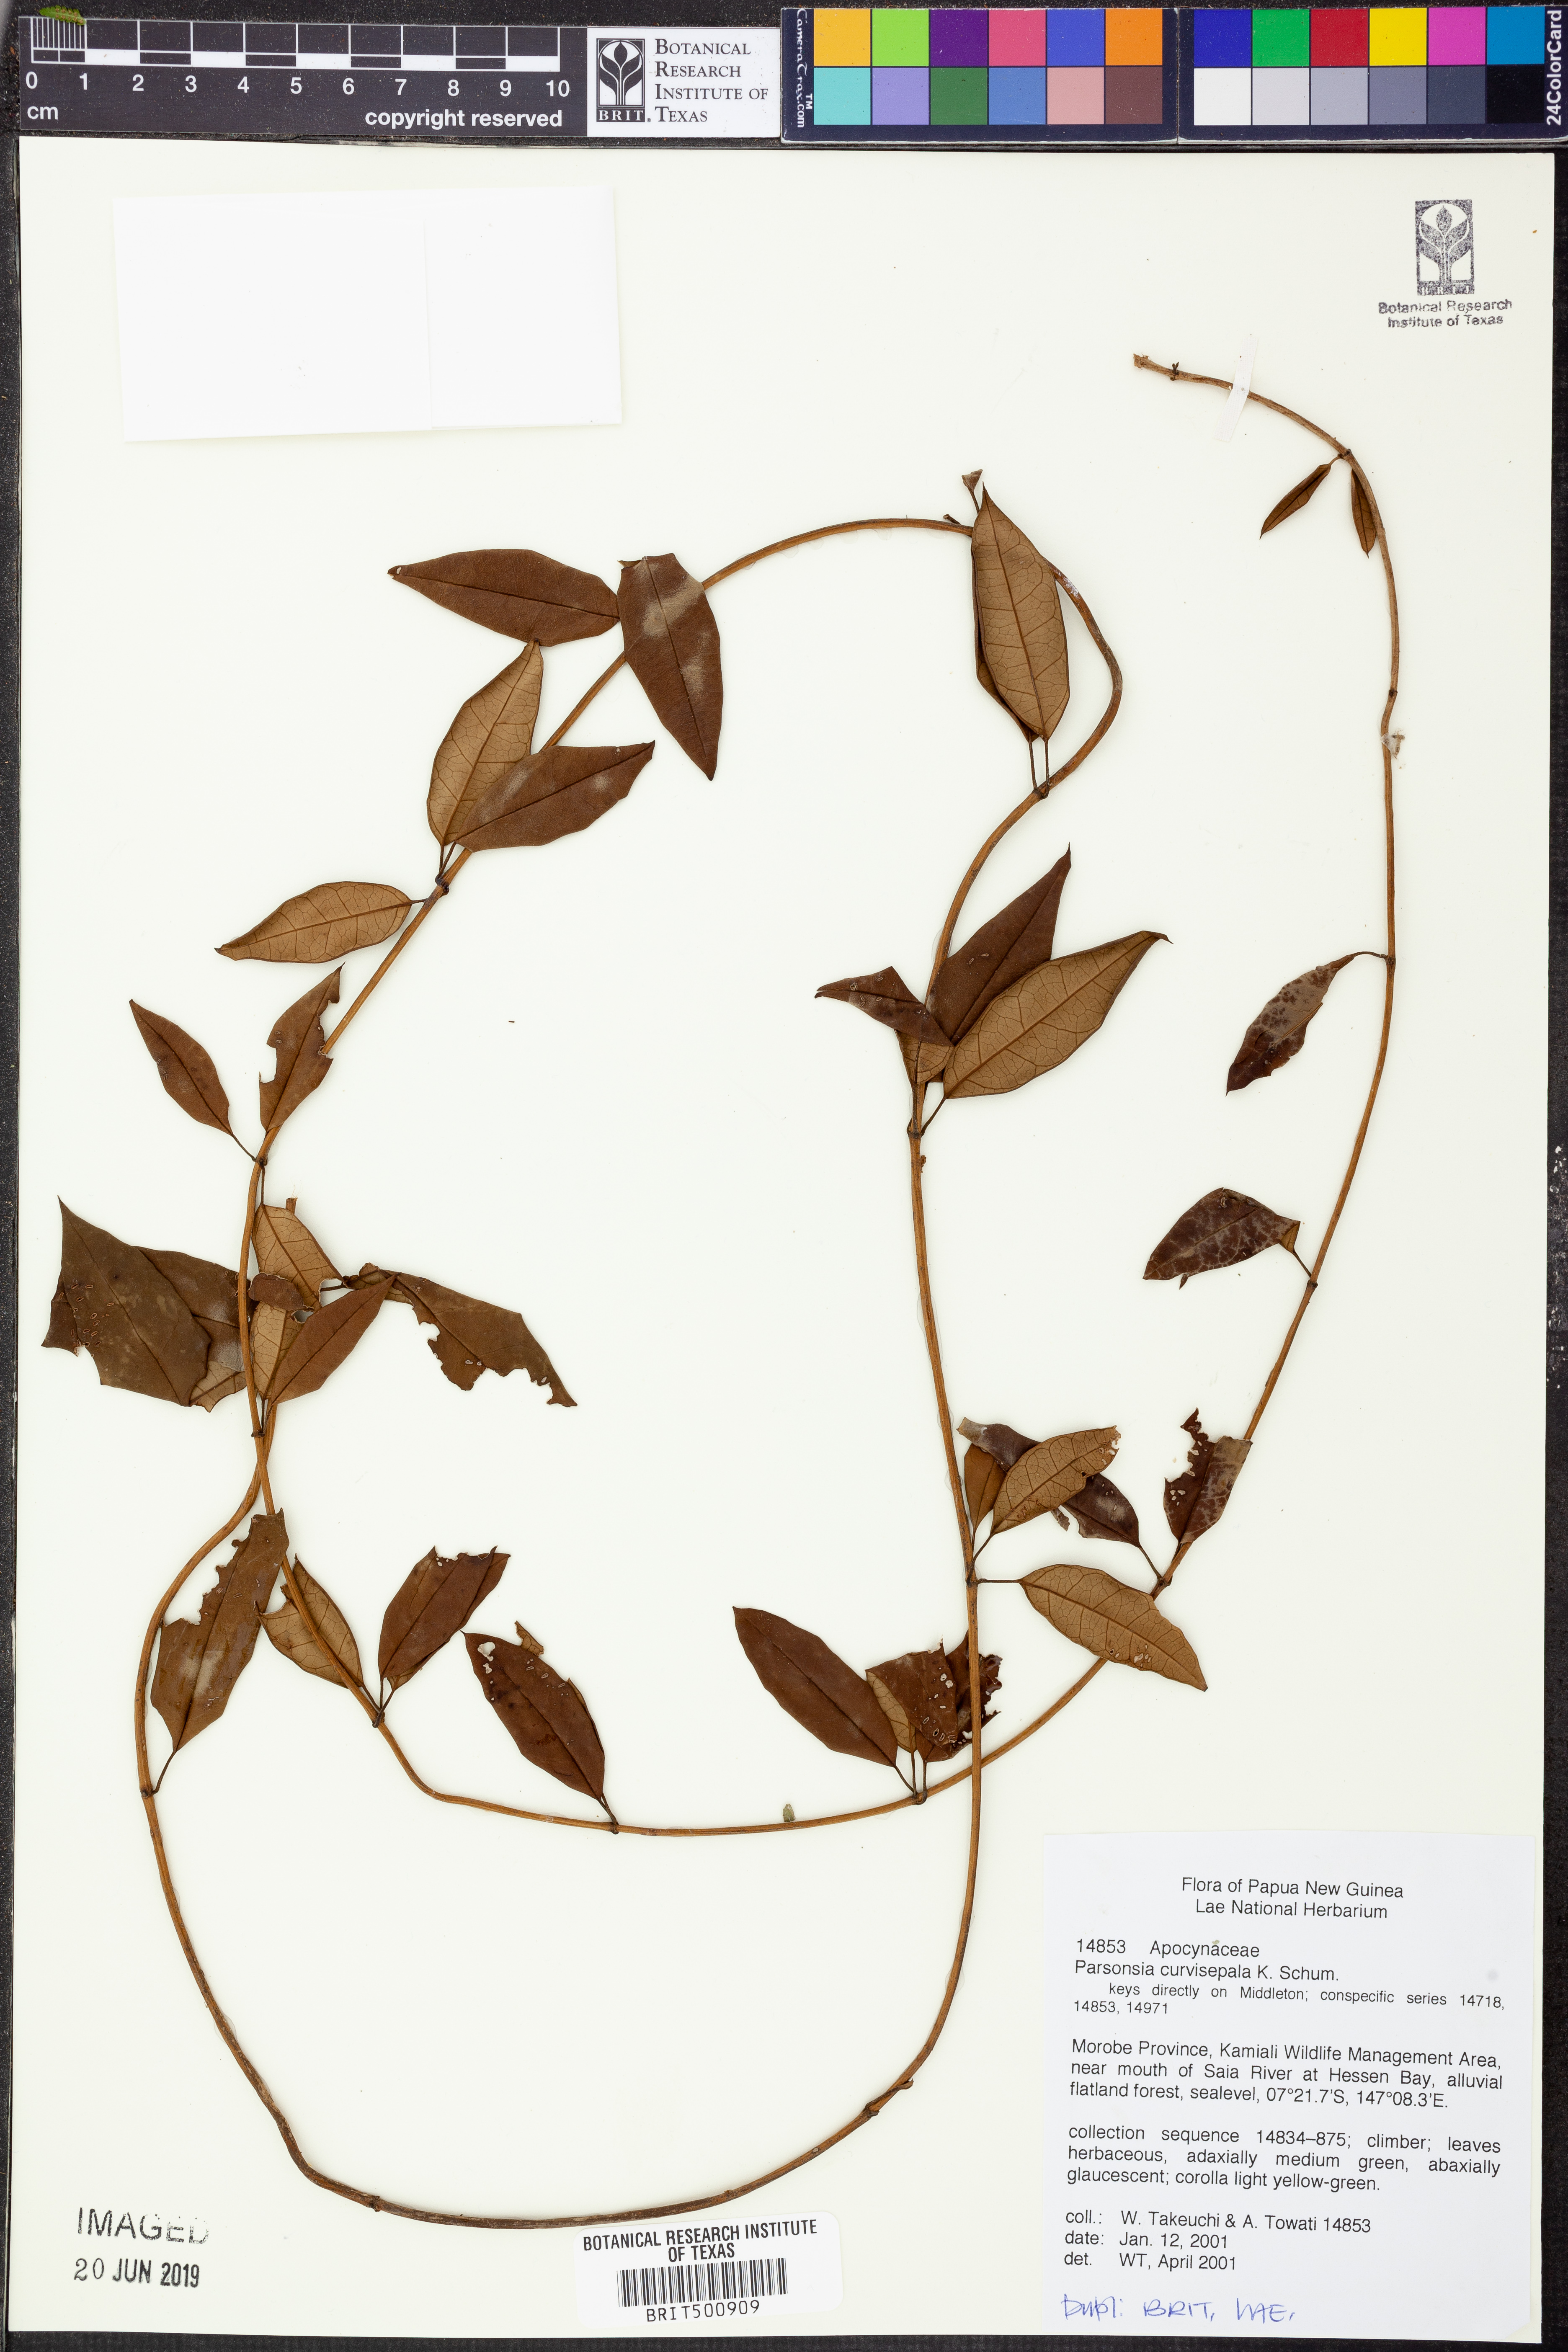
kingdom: Plantae
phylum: Tracheophyta
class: Magnoliopsida
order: Gentianales
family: Apocynaceae
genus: Parsonsia
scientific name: Parsonsia curvisepala
